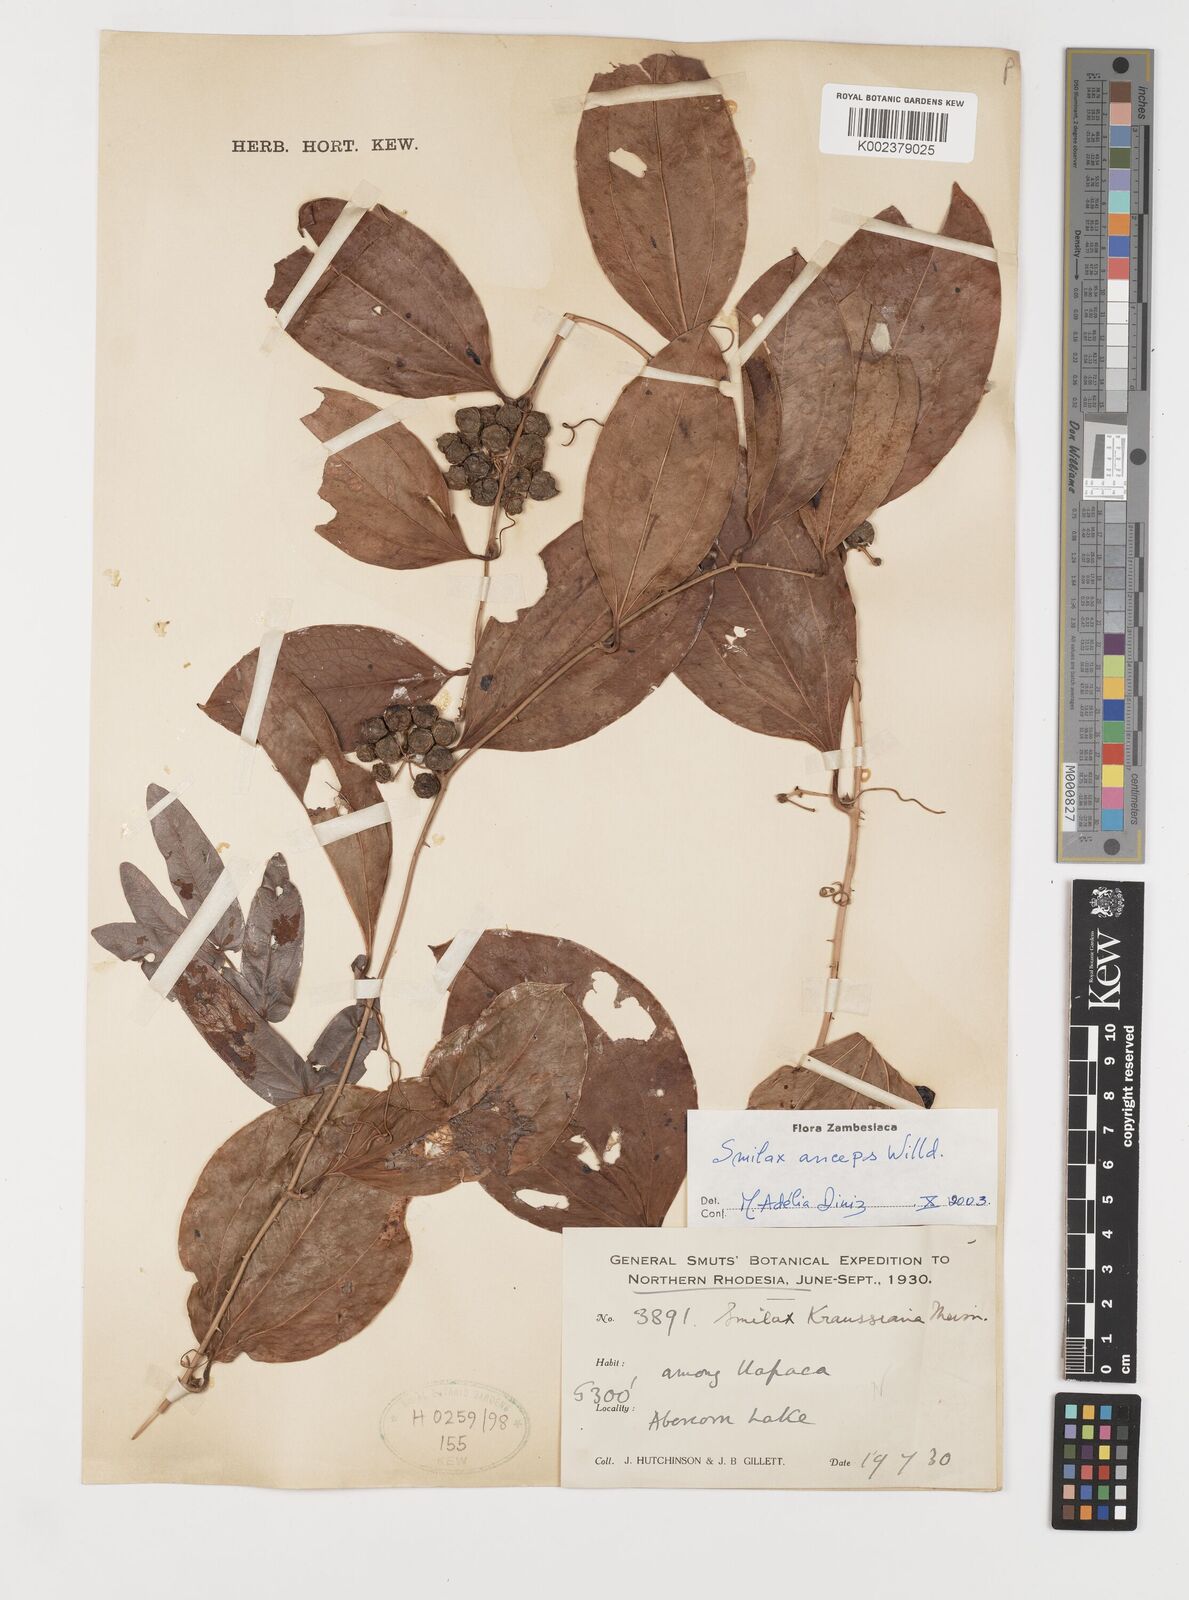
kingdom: Plantae
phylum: Tracheophyta
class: Liliopsida
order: Liliales
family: Smilacaceae
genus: Smilax
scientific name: Smilax anceps
